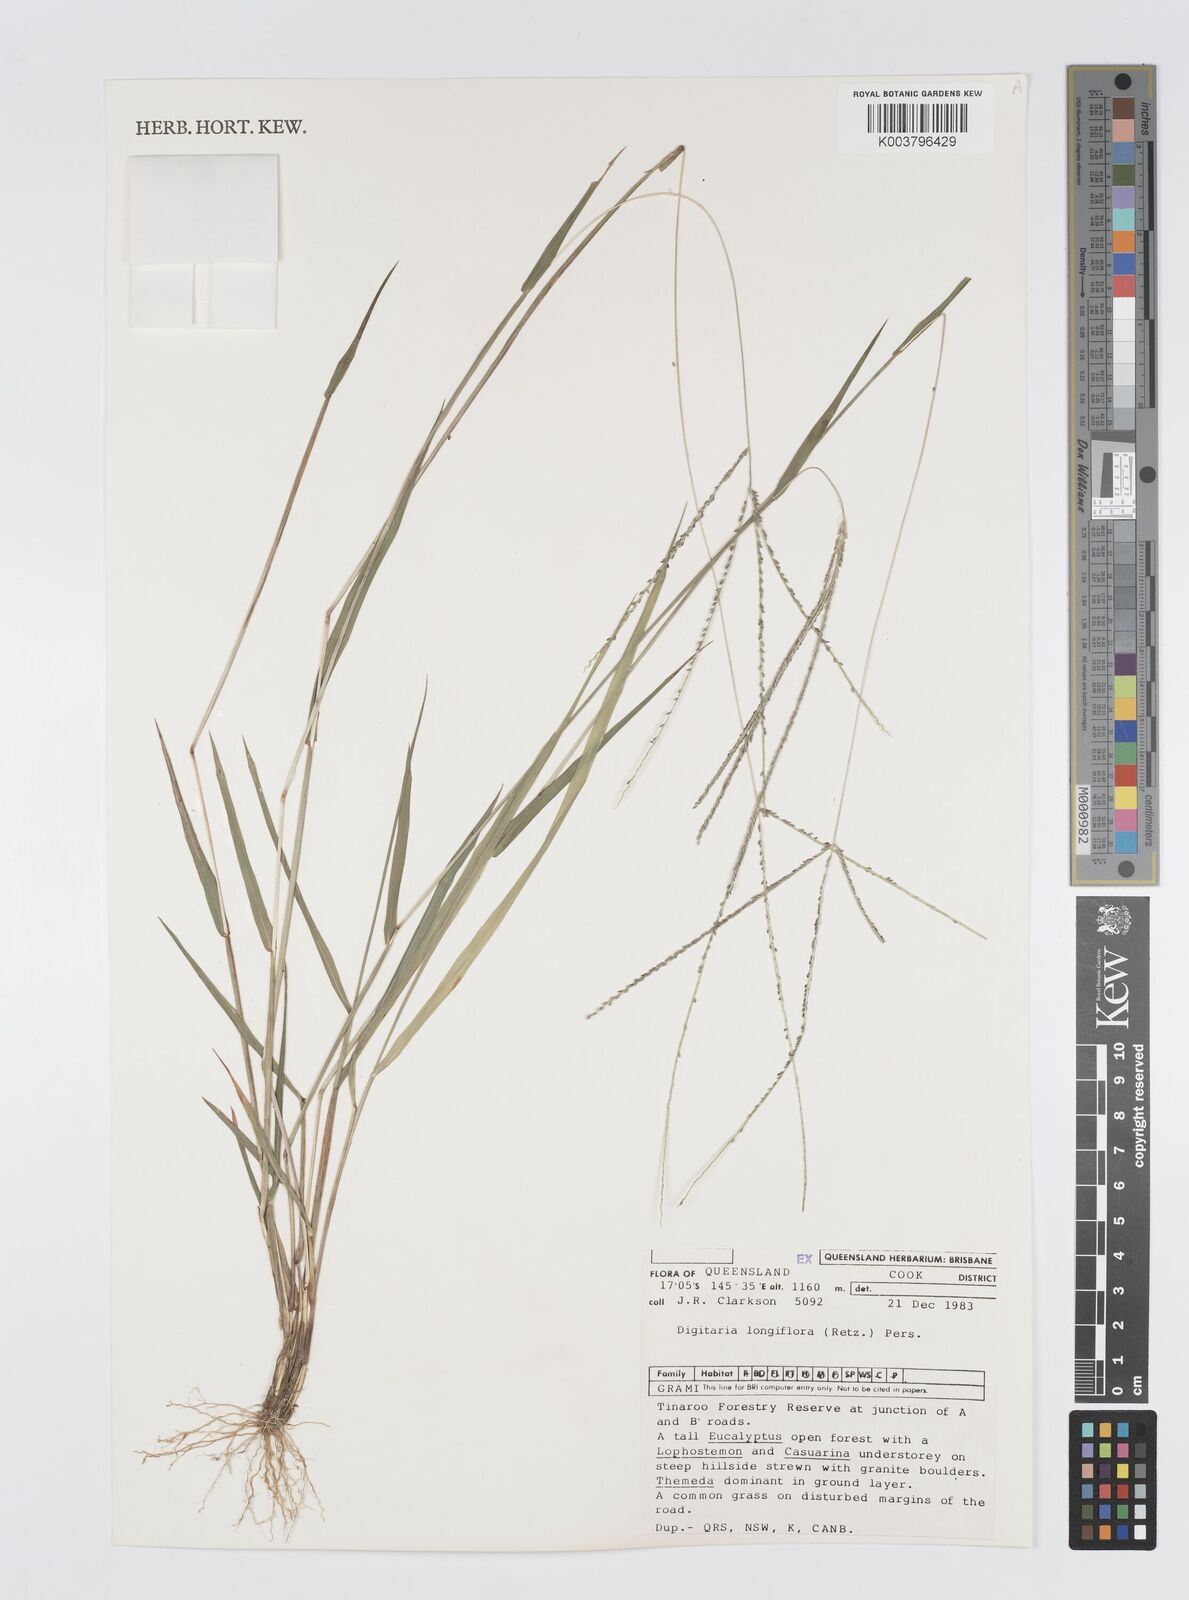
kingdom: Plantae
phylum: Tracheophyta
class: Liliopsida
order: Poales
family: Poaceae
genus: Digitaria
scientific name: Digitaria longiflora
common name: Wire crabgrass
